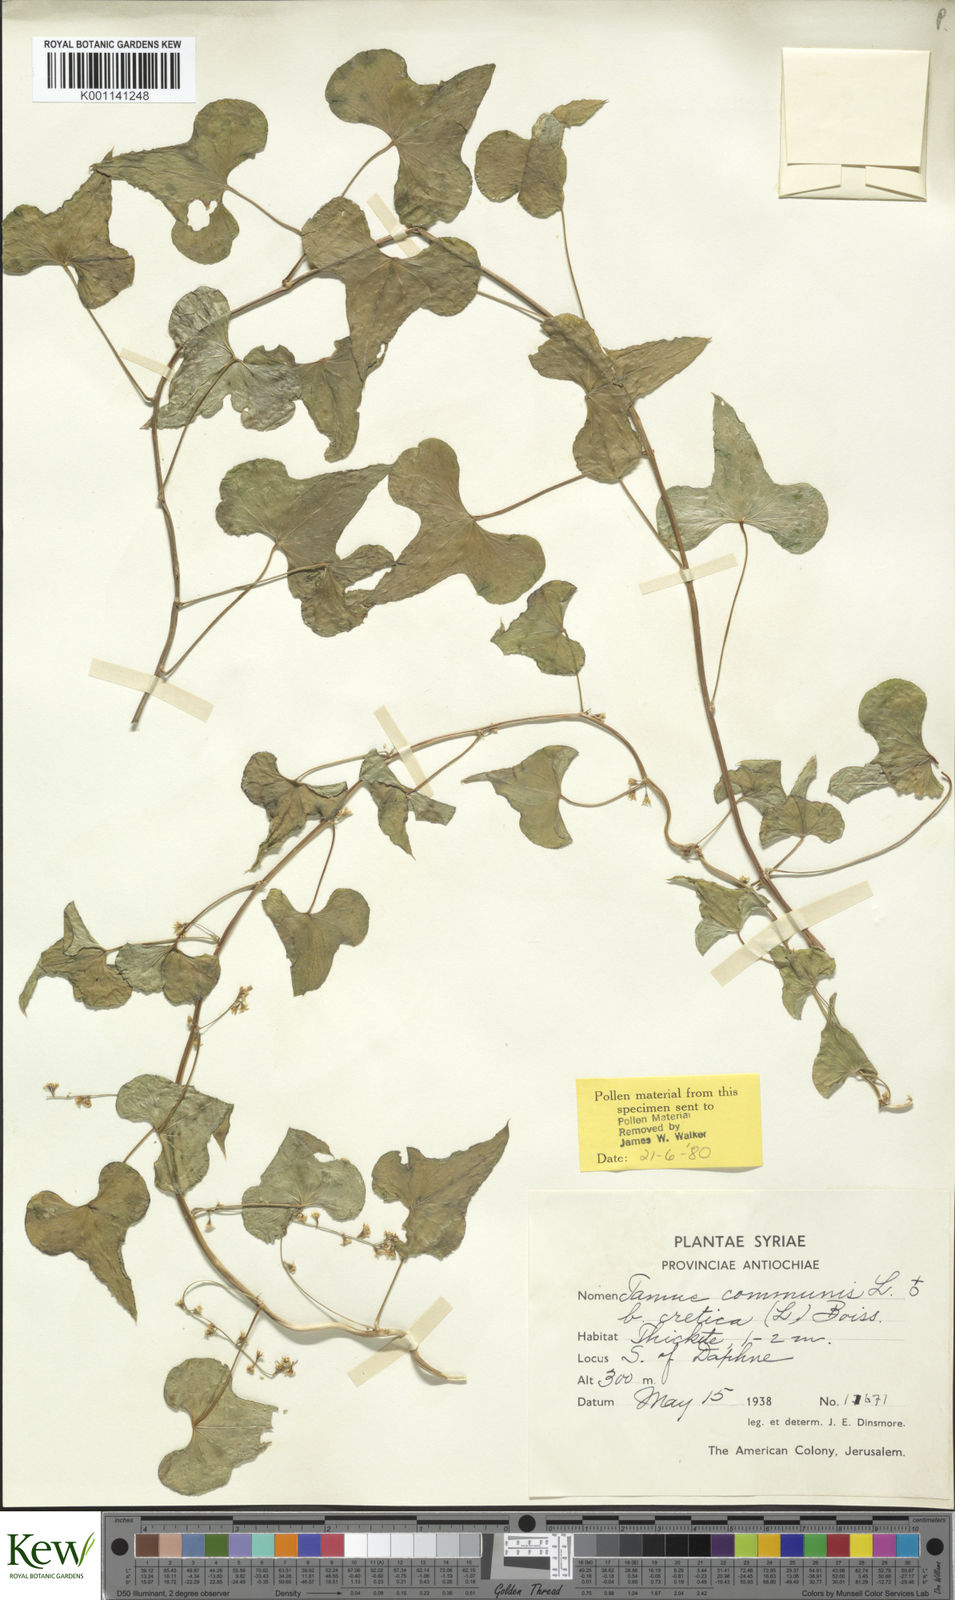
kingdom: Plantae
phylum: Tracheophyta
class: Liliopsida
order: Dioscoreales
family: Dioscoreaceae
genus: Dioscorea
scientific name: Dioscorea communis
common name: Black-bindweed
